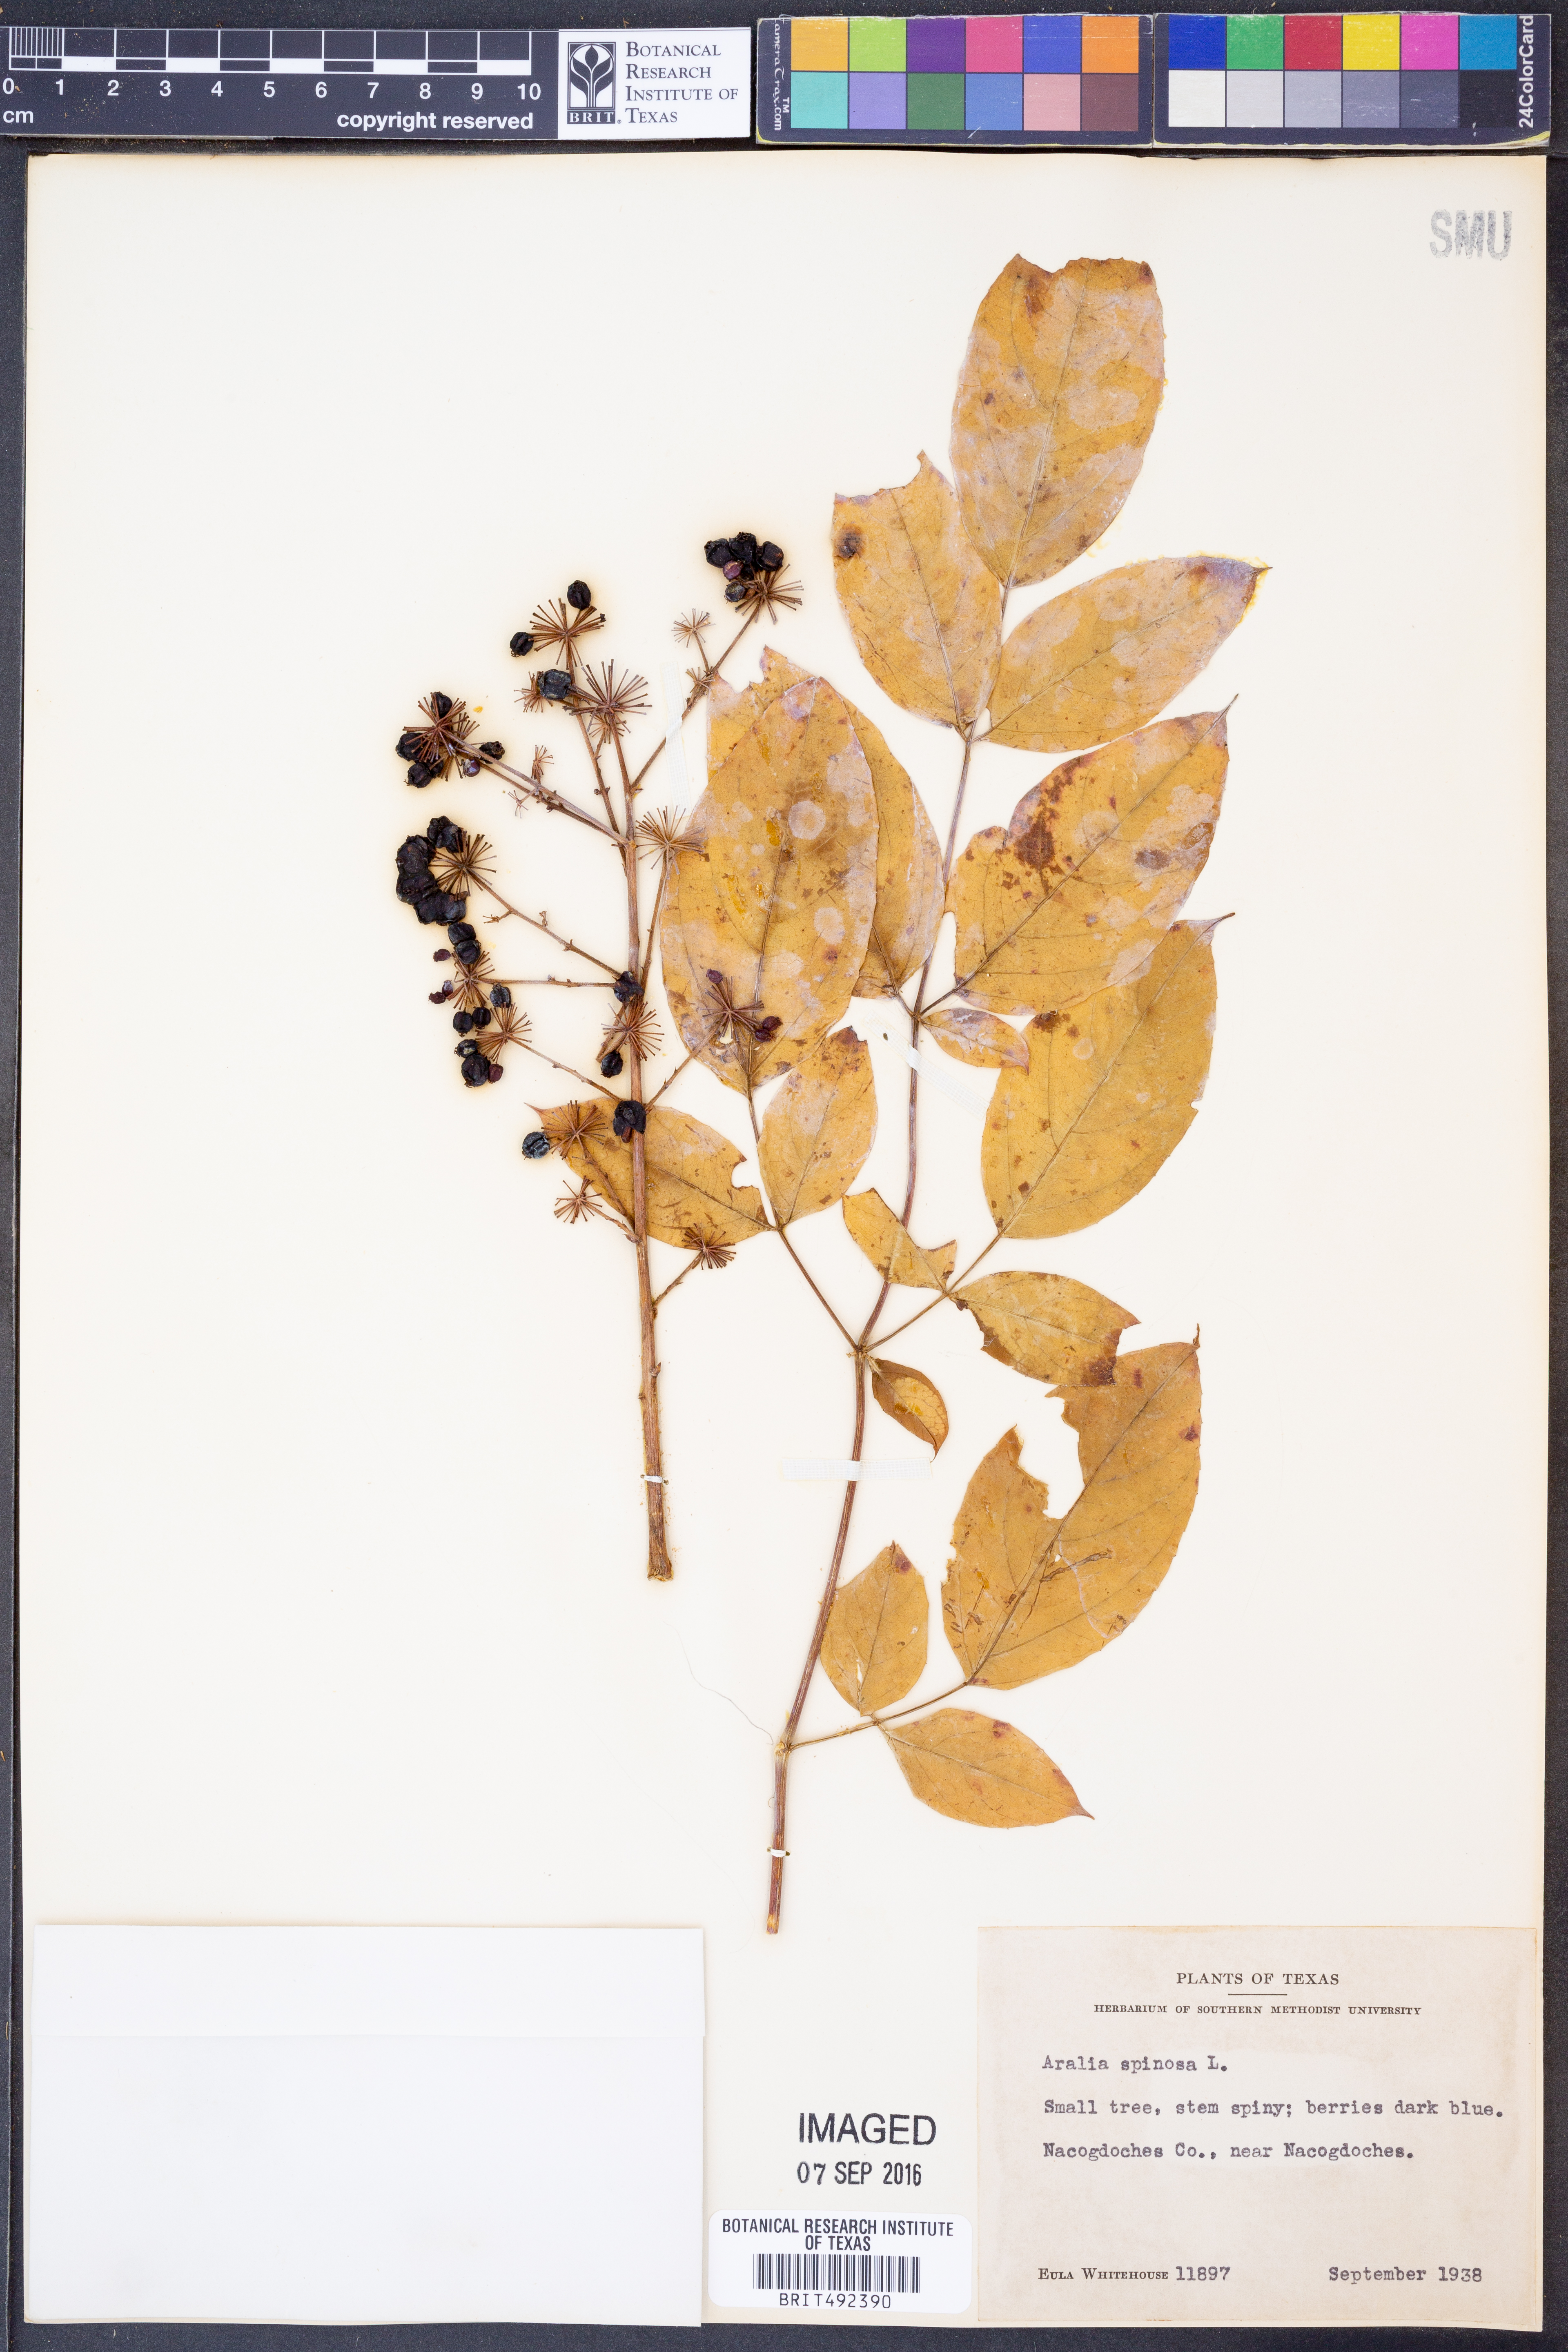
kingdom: Plantae
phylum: Tracheophyta
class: Magnoliopsida
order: Apiales
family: Araliaceae
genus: Aralia
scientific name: Aralia spinosa
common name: Hercules'-club
